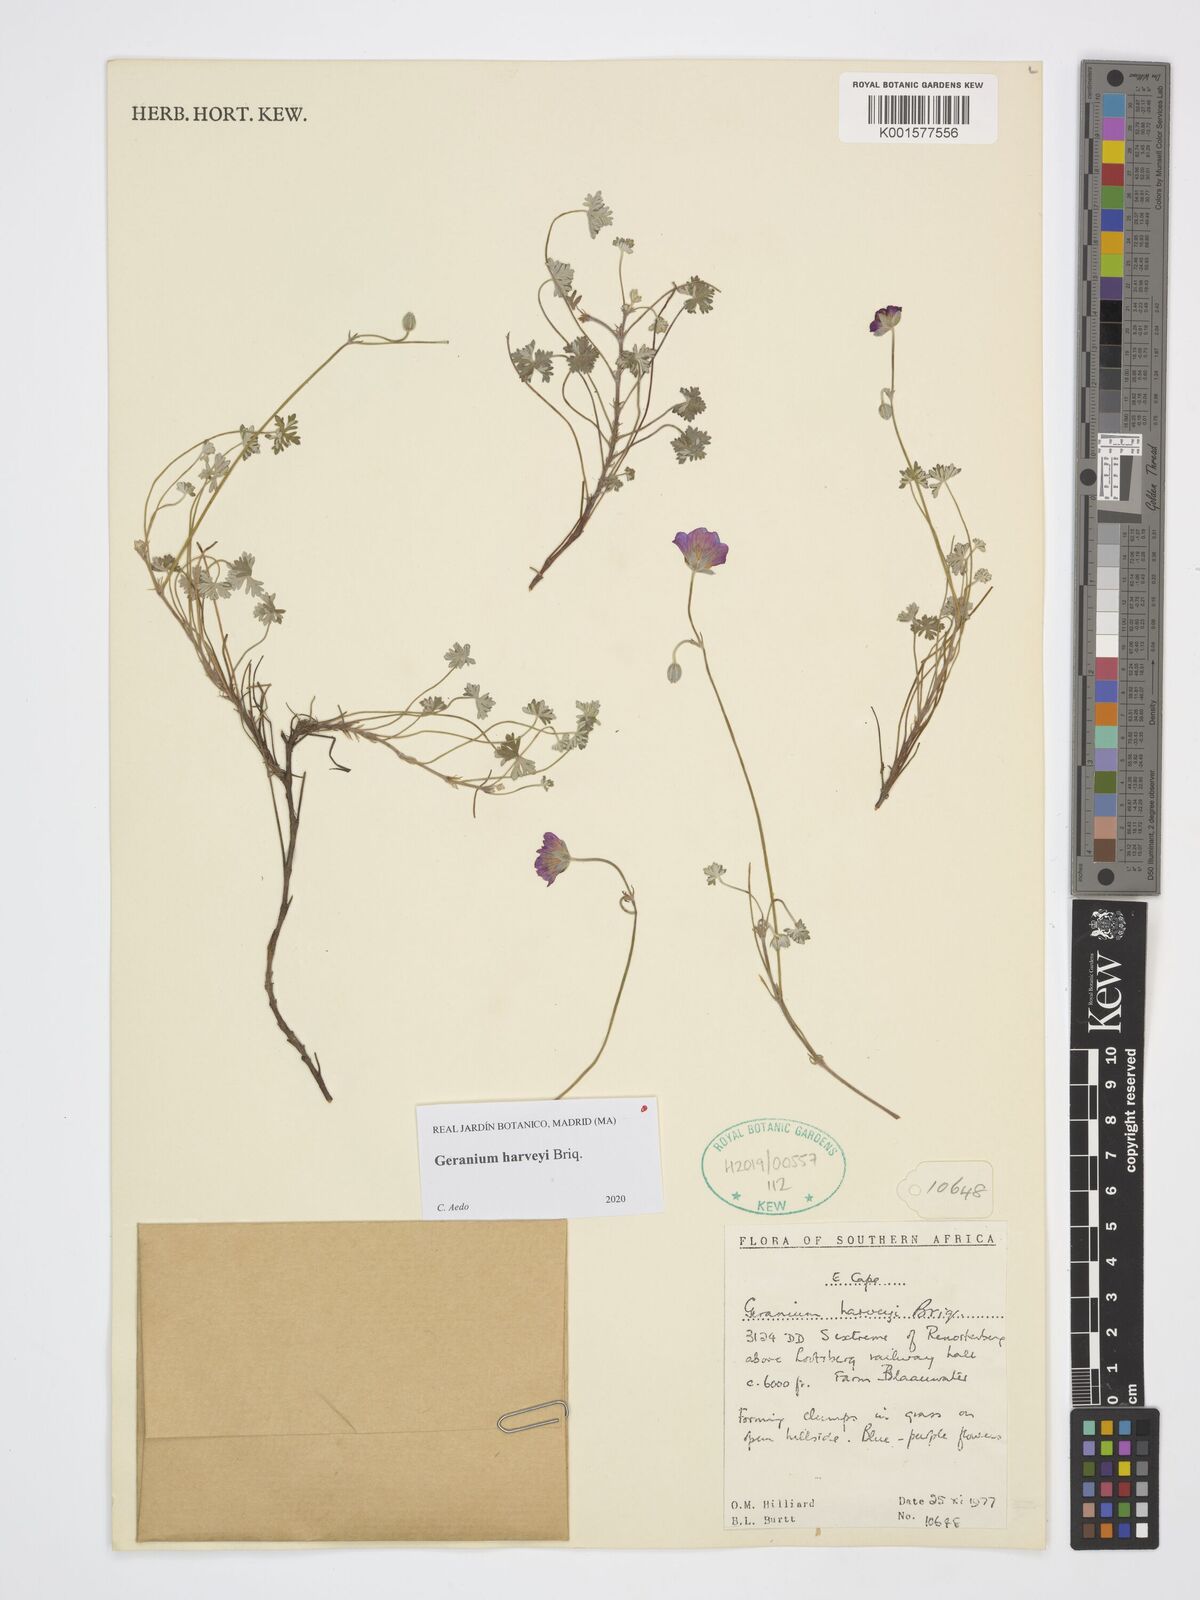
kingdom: Plantae
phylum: Tracheophyta
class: Magnoliopsida
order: Geraniales
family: Geraniaceae
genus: Geranium
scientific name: Geranium harveyi
